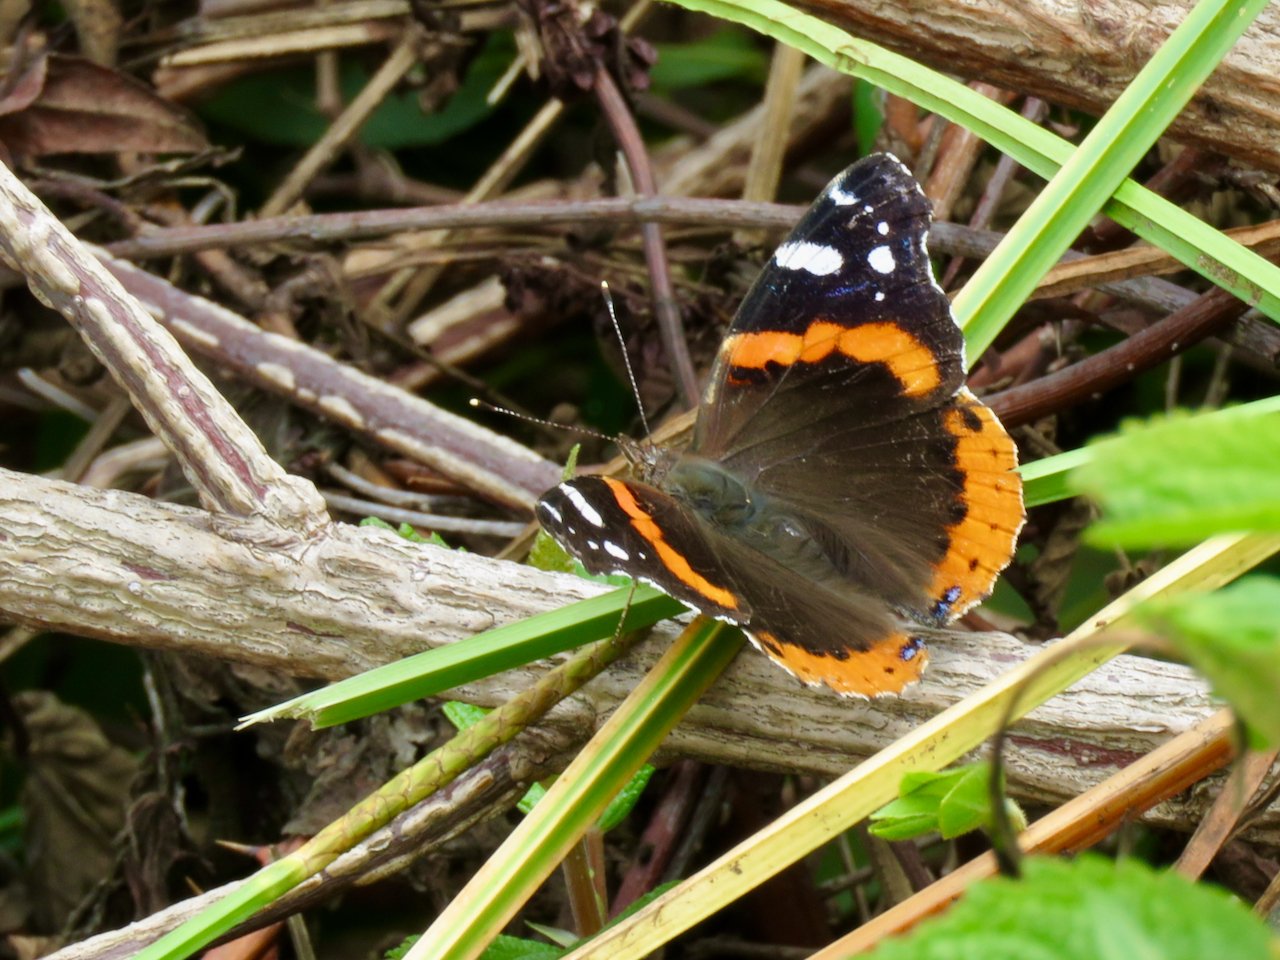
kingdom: Animalia
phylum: Arthropoda
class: Insecta
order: Lepidoptera
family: Nymphalidae
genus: Vanessa
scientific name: Vanessa atalanta
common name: Red Admiral
